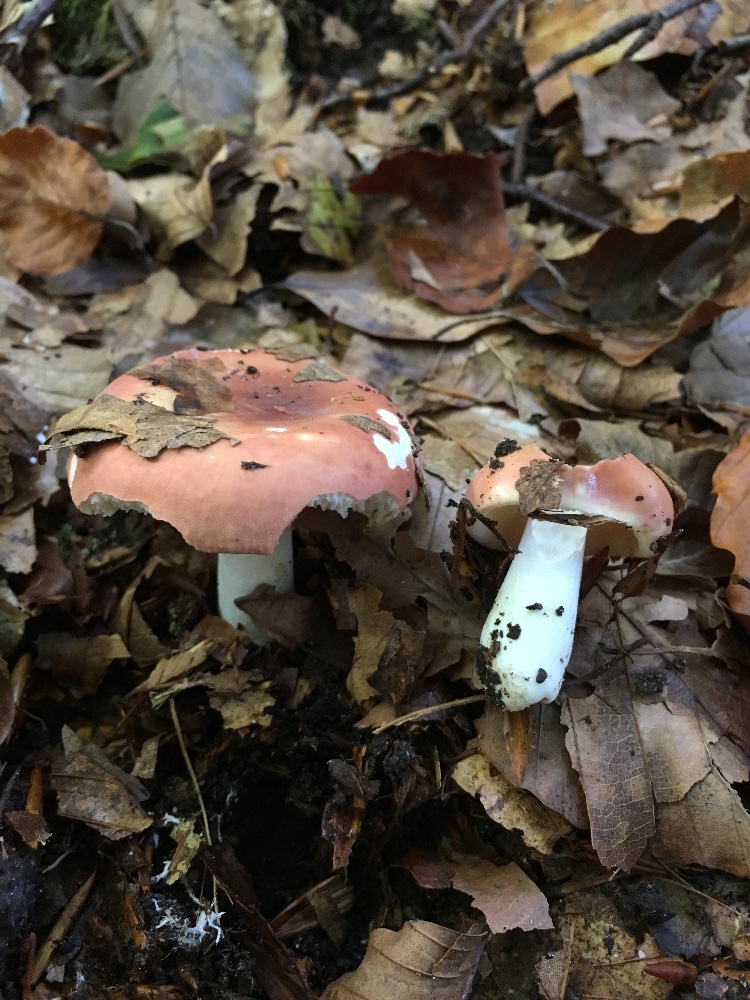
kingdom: Fungi
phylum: Basidiomycota
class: Agaricomycetes
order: Russulales
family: Russulaceae
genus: Russula
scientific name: Russula aurora
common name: rosa skørhat
